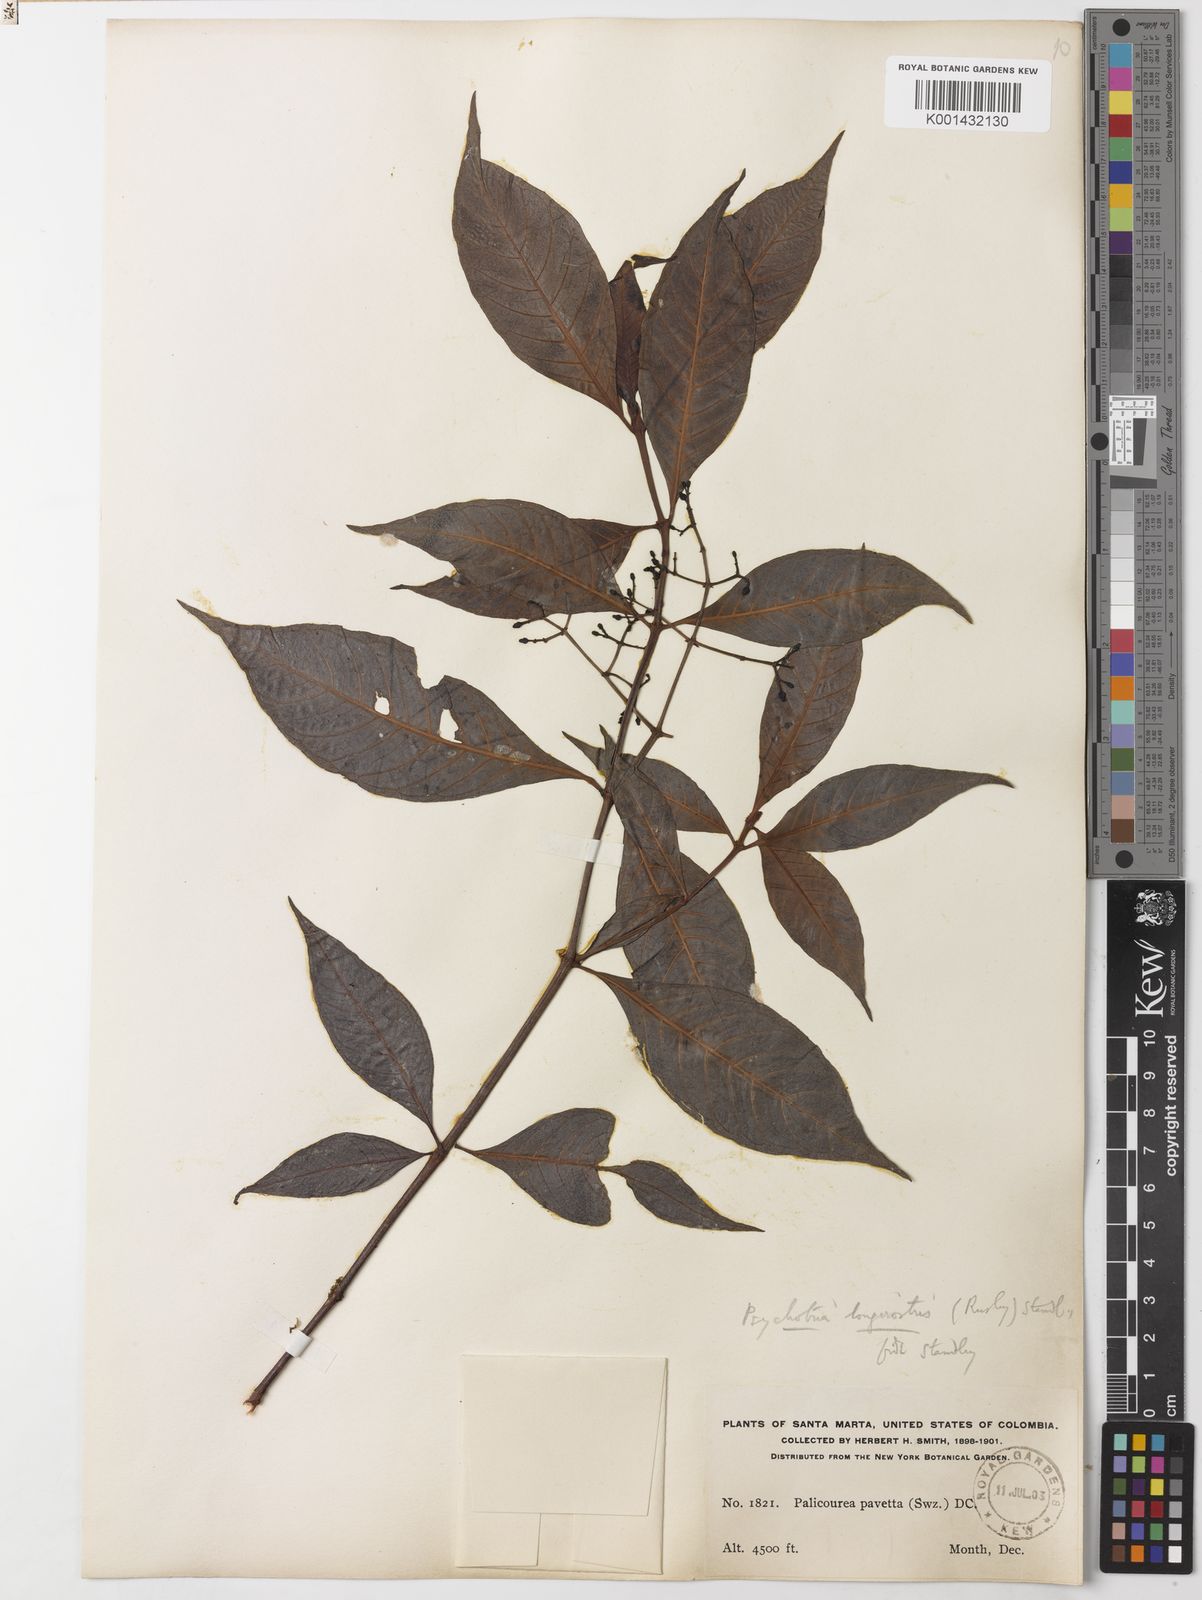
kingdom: Plantae
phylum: Tracheophyta
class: Magnoliopsida
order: Gentianales
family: Rubiaceae
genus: Palicourea
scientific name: Palicourea longirostris
